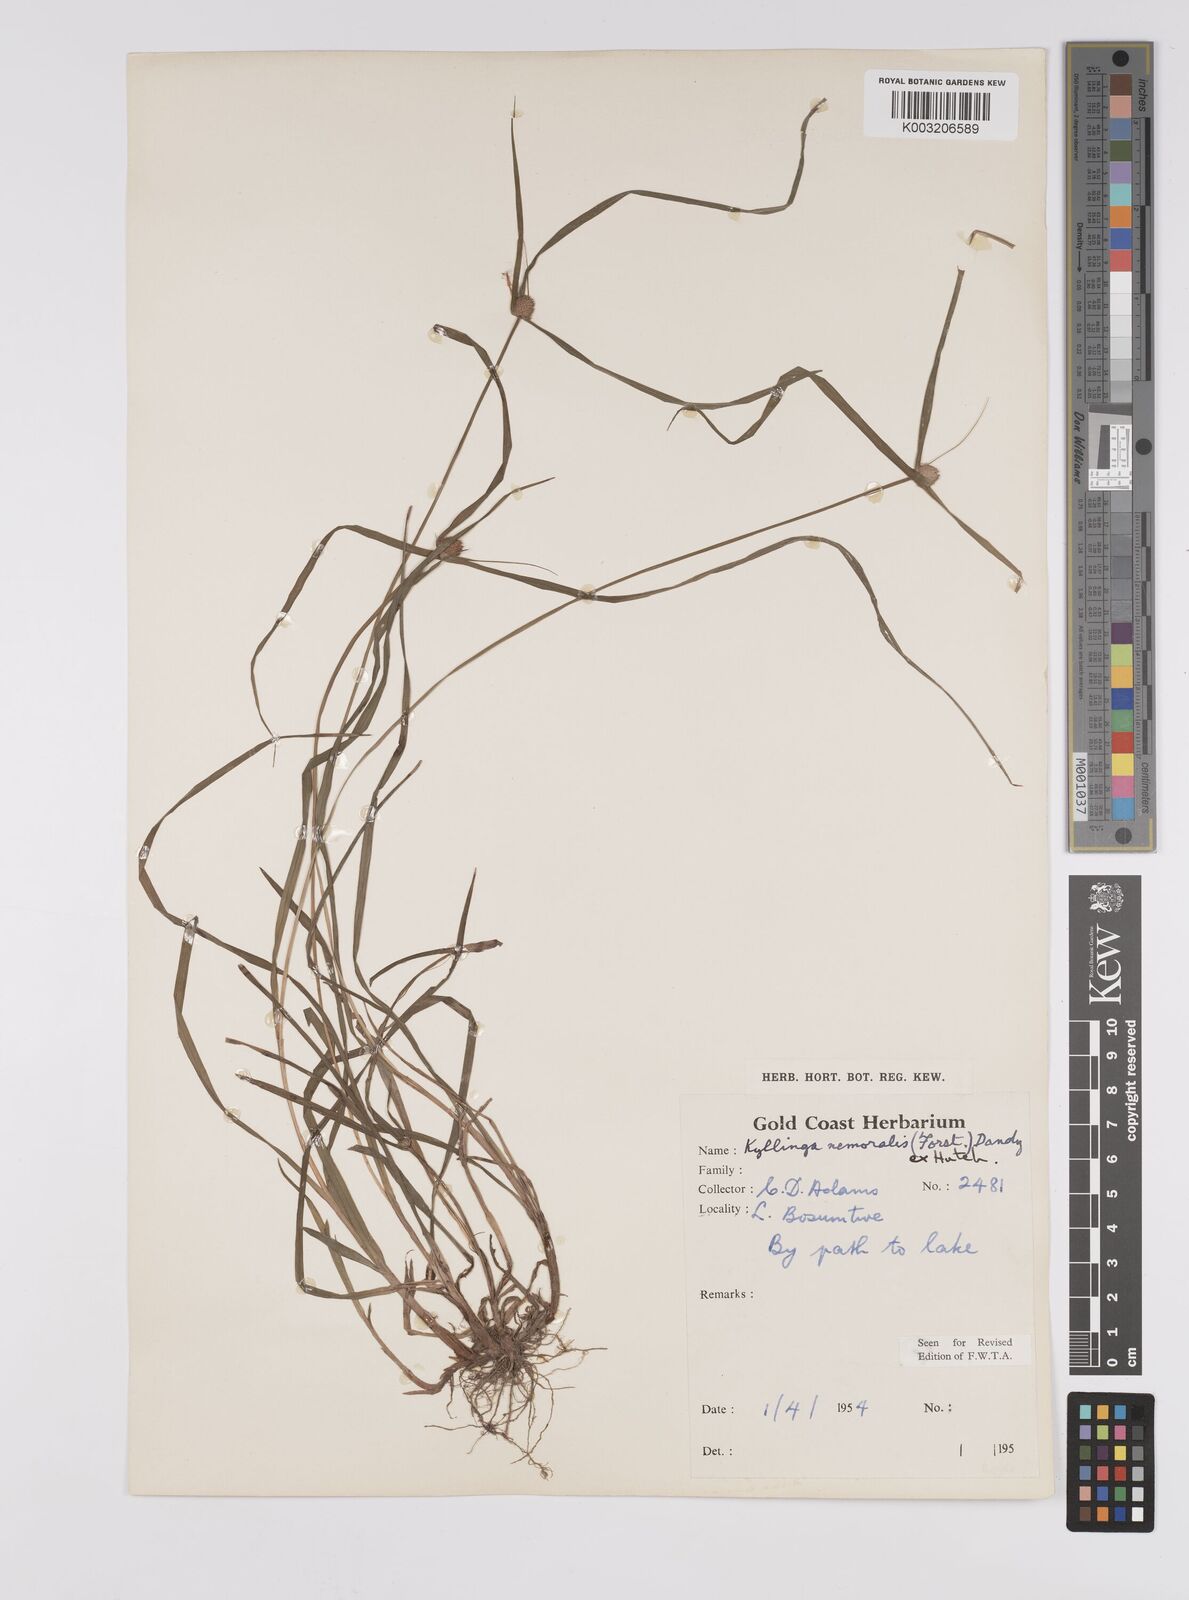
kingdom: Plantae
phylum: Tracheophyta
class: Liliopsida
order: Poales
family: Cyperaceae
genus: Cyperus
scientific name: Cyperus nemoralis
